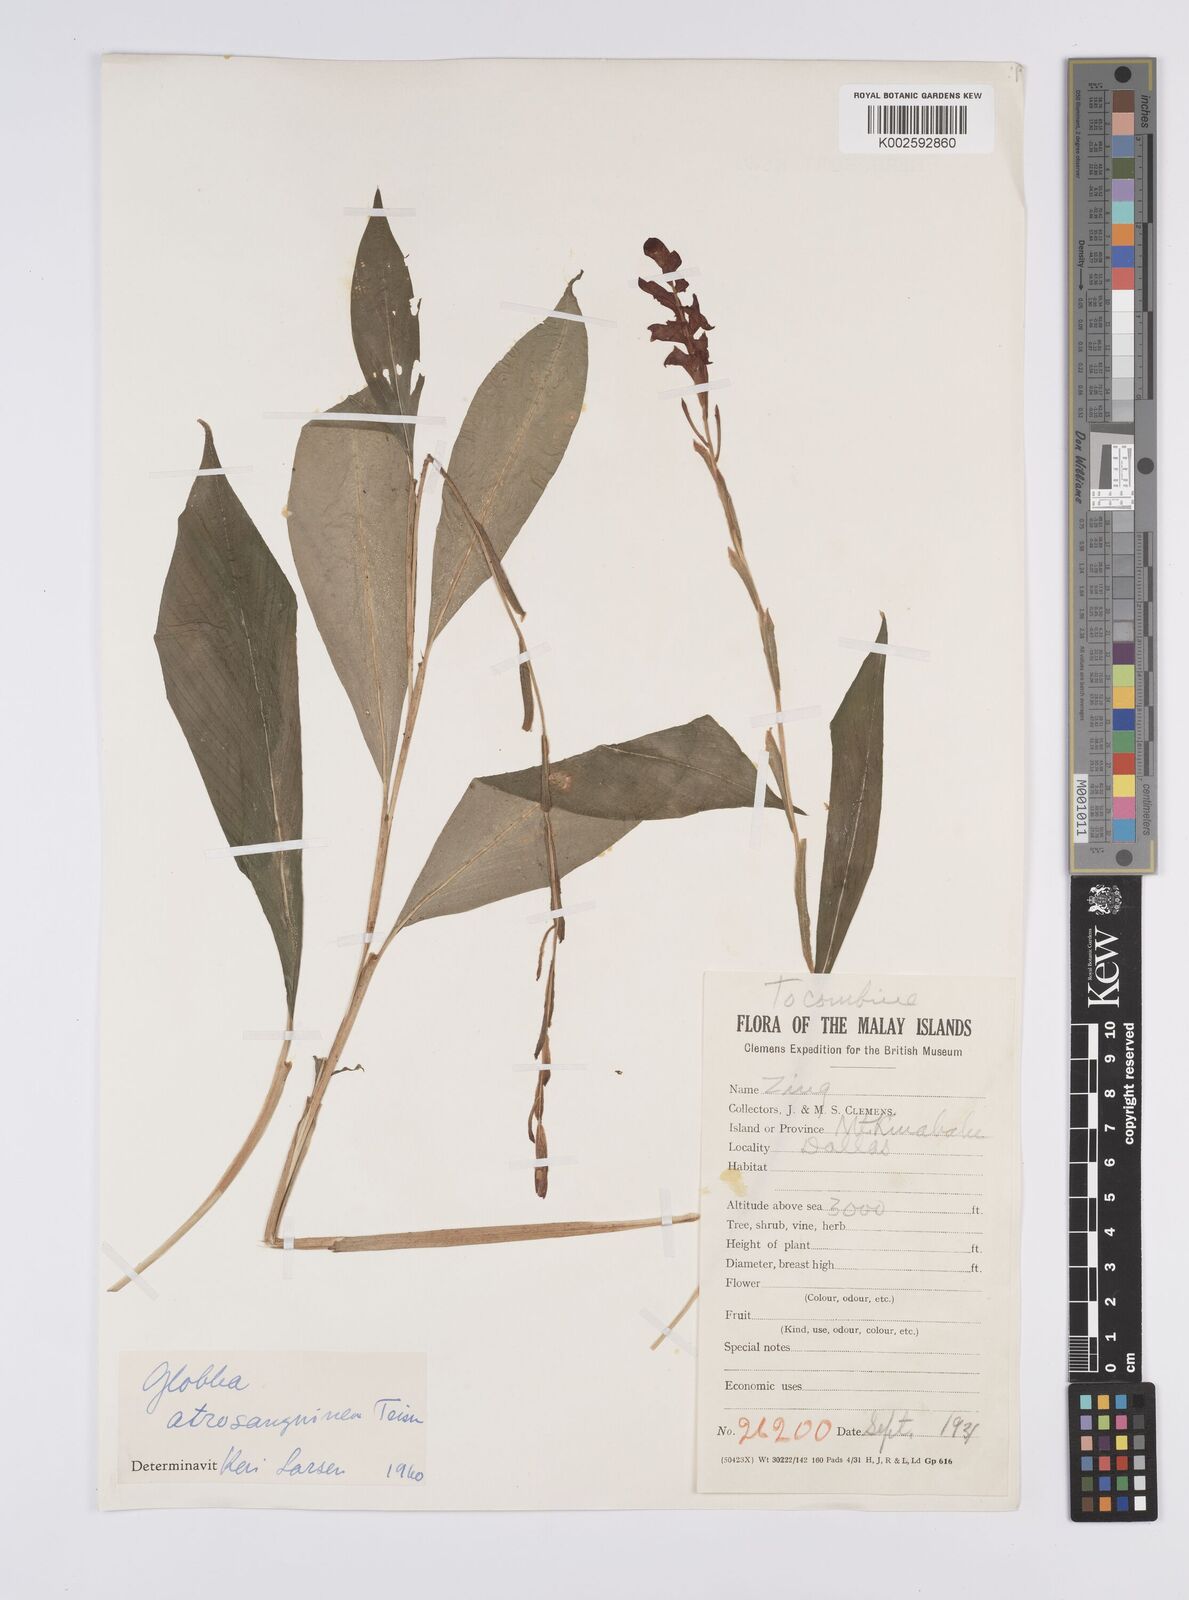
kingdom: Plantae
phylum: Tracheophyta
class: Liliopsida
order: Zingiberales
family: Zingiberaceae
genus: Globba
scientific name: Globba atrosanguinea
